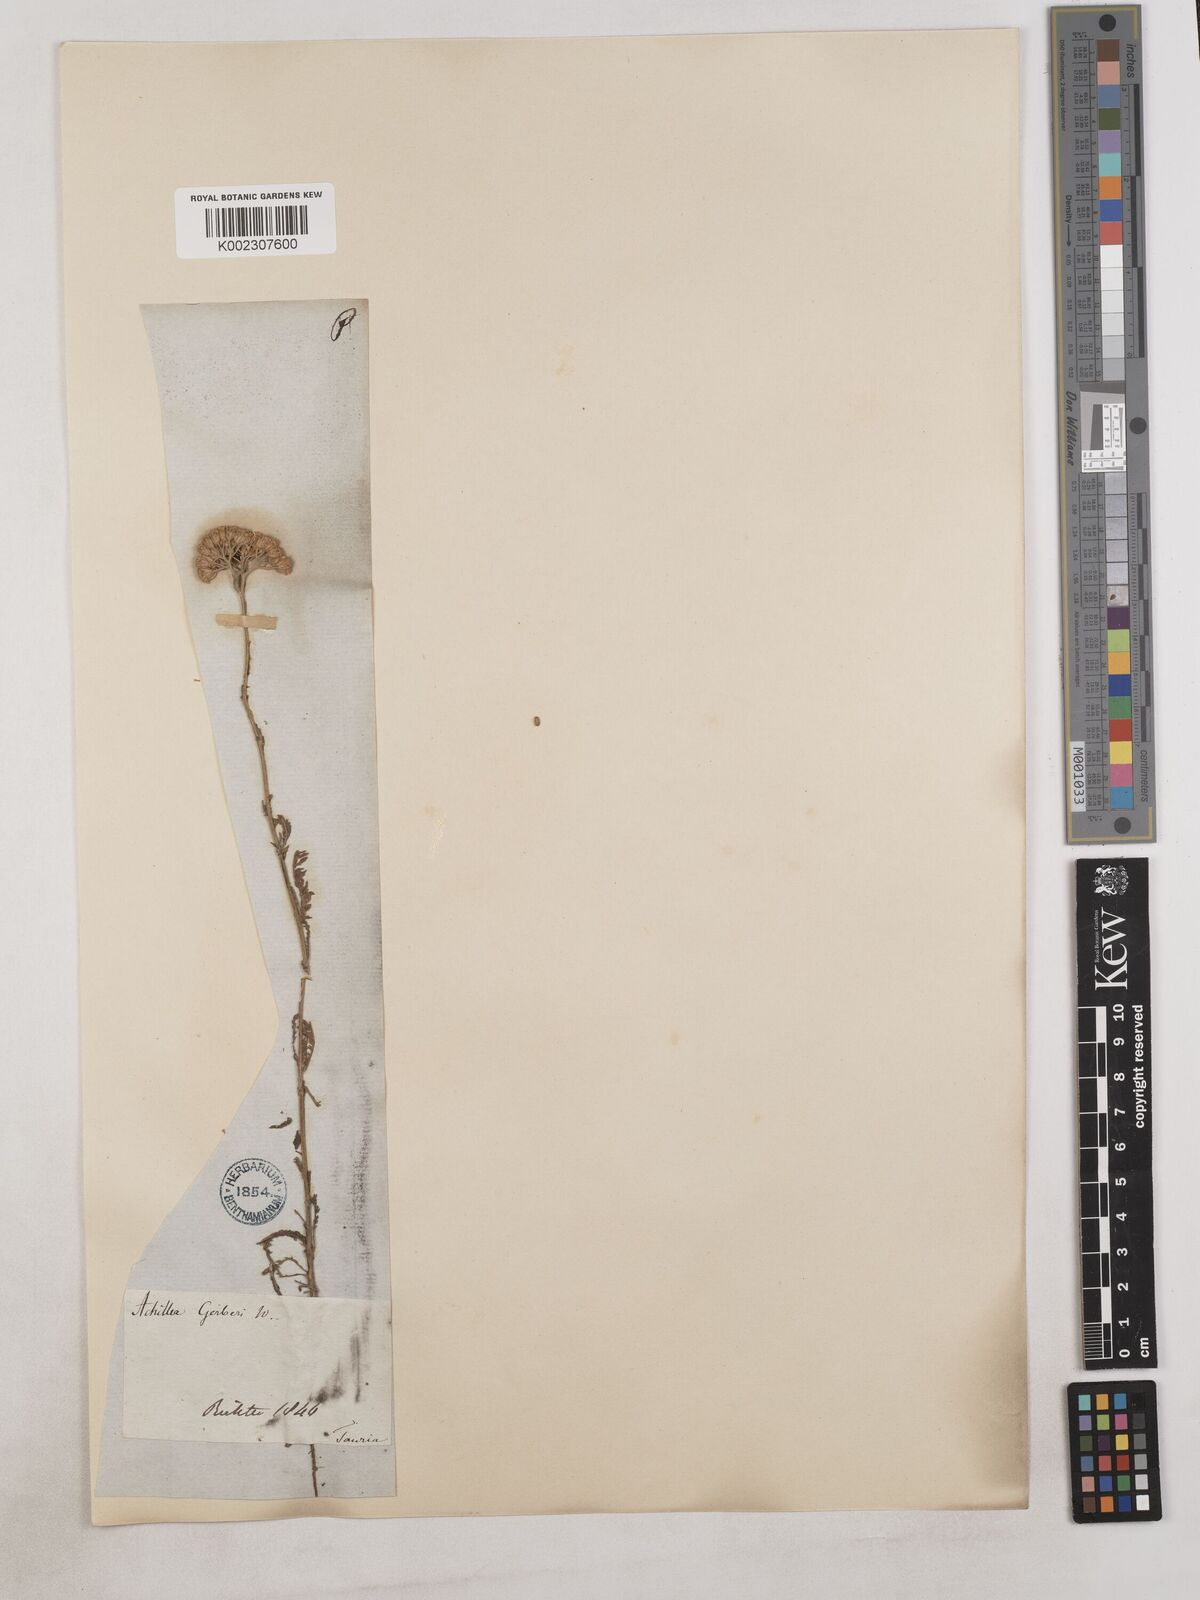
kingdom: Plantae
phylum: Tracheophyta
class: Magnoliopsida
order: Asterales
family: Asteraceae
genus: Achillea
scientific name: Achillea
